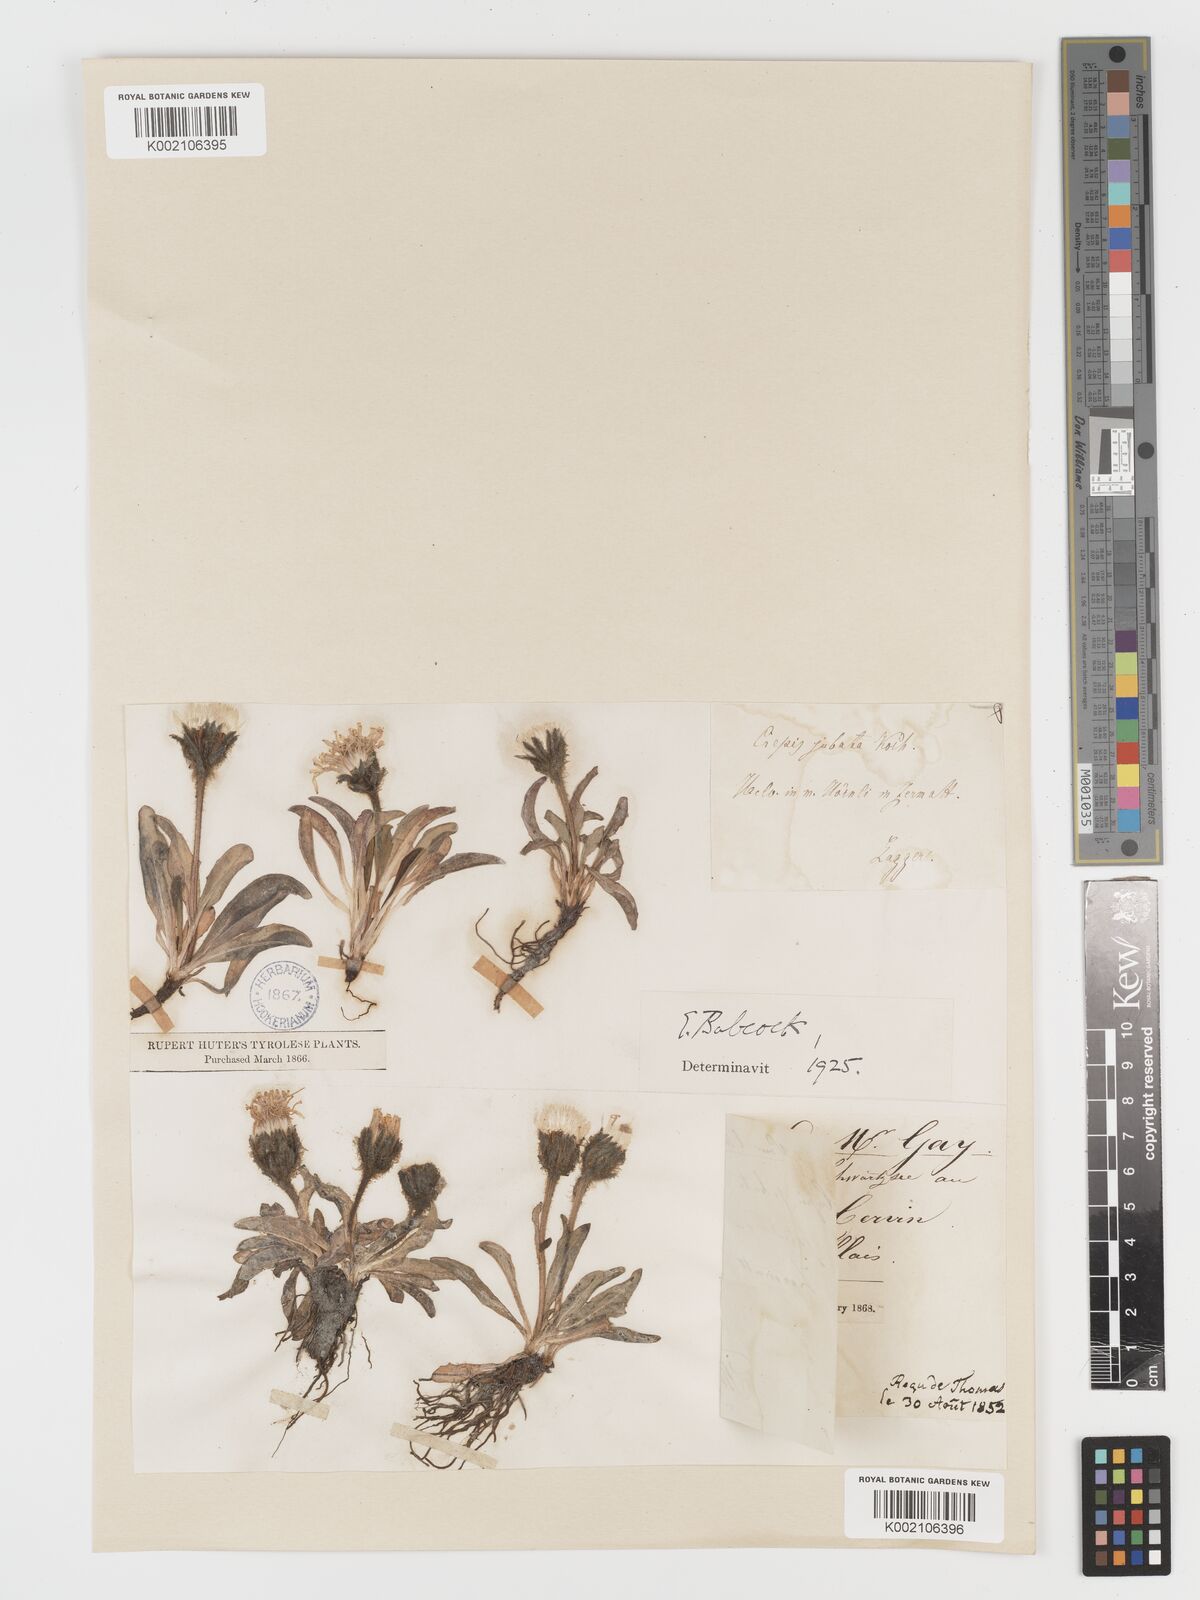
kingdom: Plantae
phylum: Tracheophyta
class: Magnoliopsida
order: Asterales
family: Asteraceae
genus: Crepis
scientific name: Crepis rhaetica
